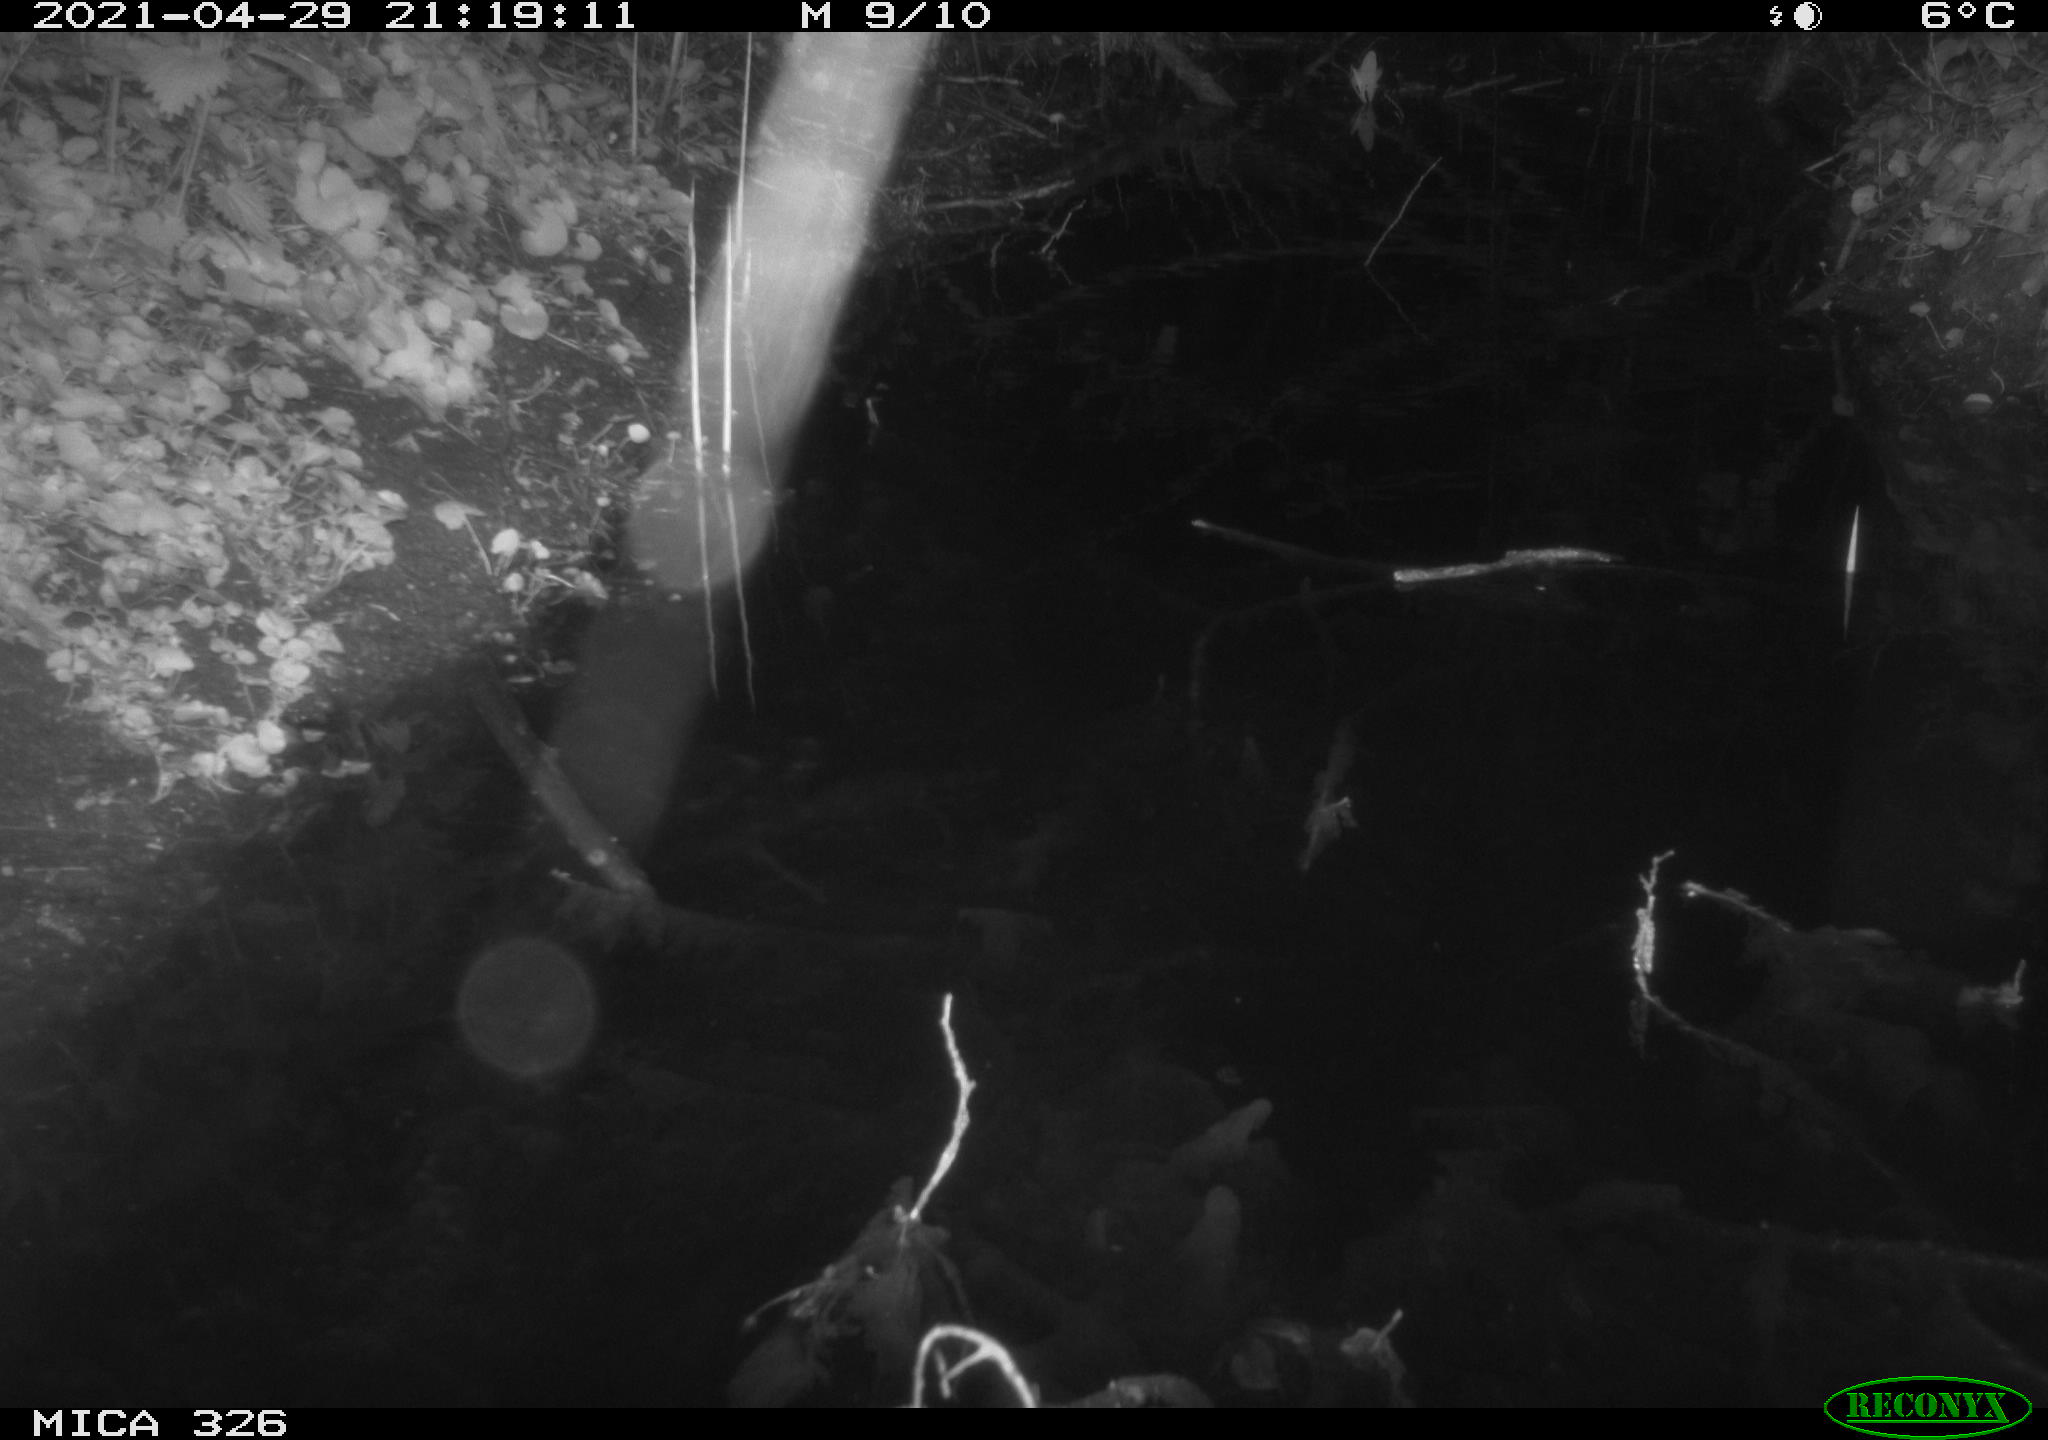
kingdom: Animalia
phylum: Chordata
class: Mammalia
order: Rodentia
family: Muridae
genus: Rattus
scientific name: Rattus norvegicus
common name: Brown rat
